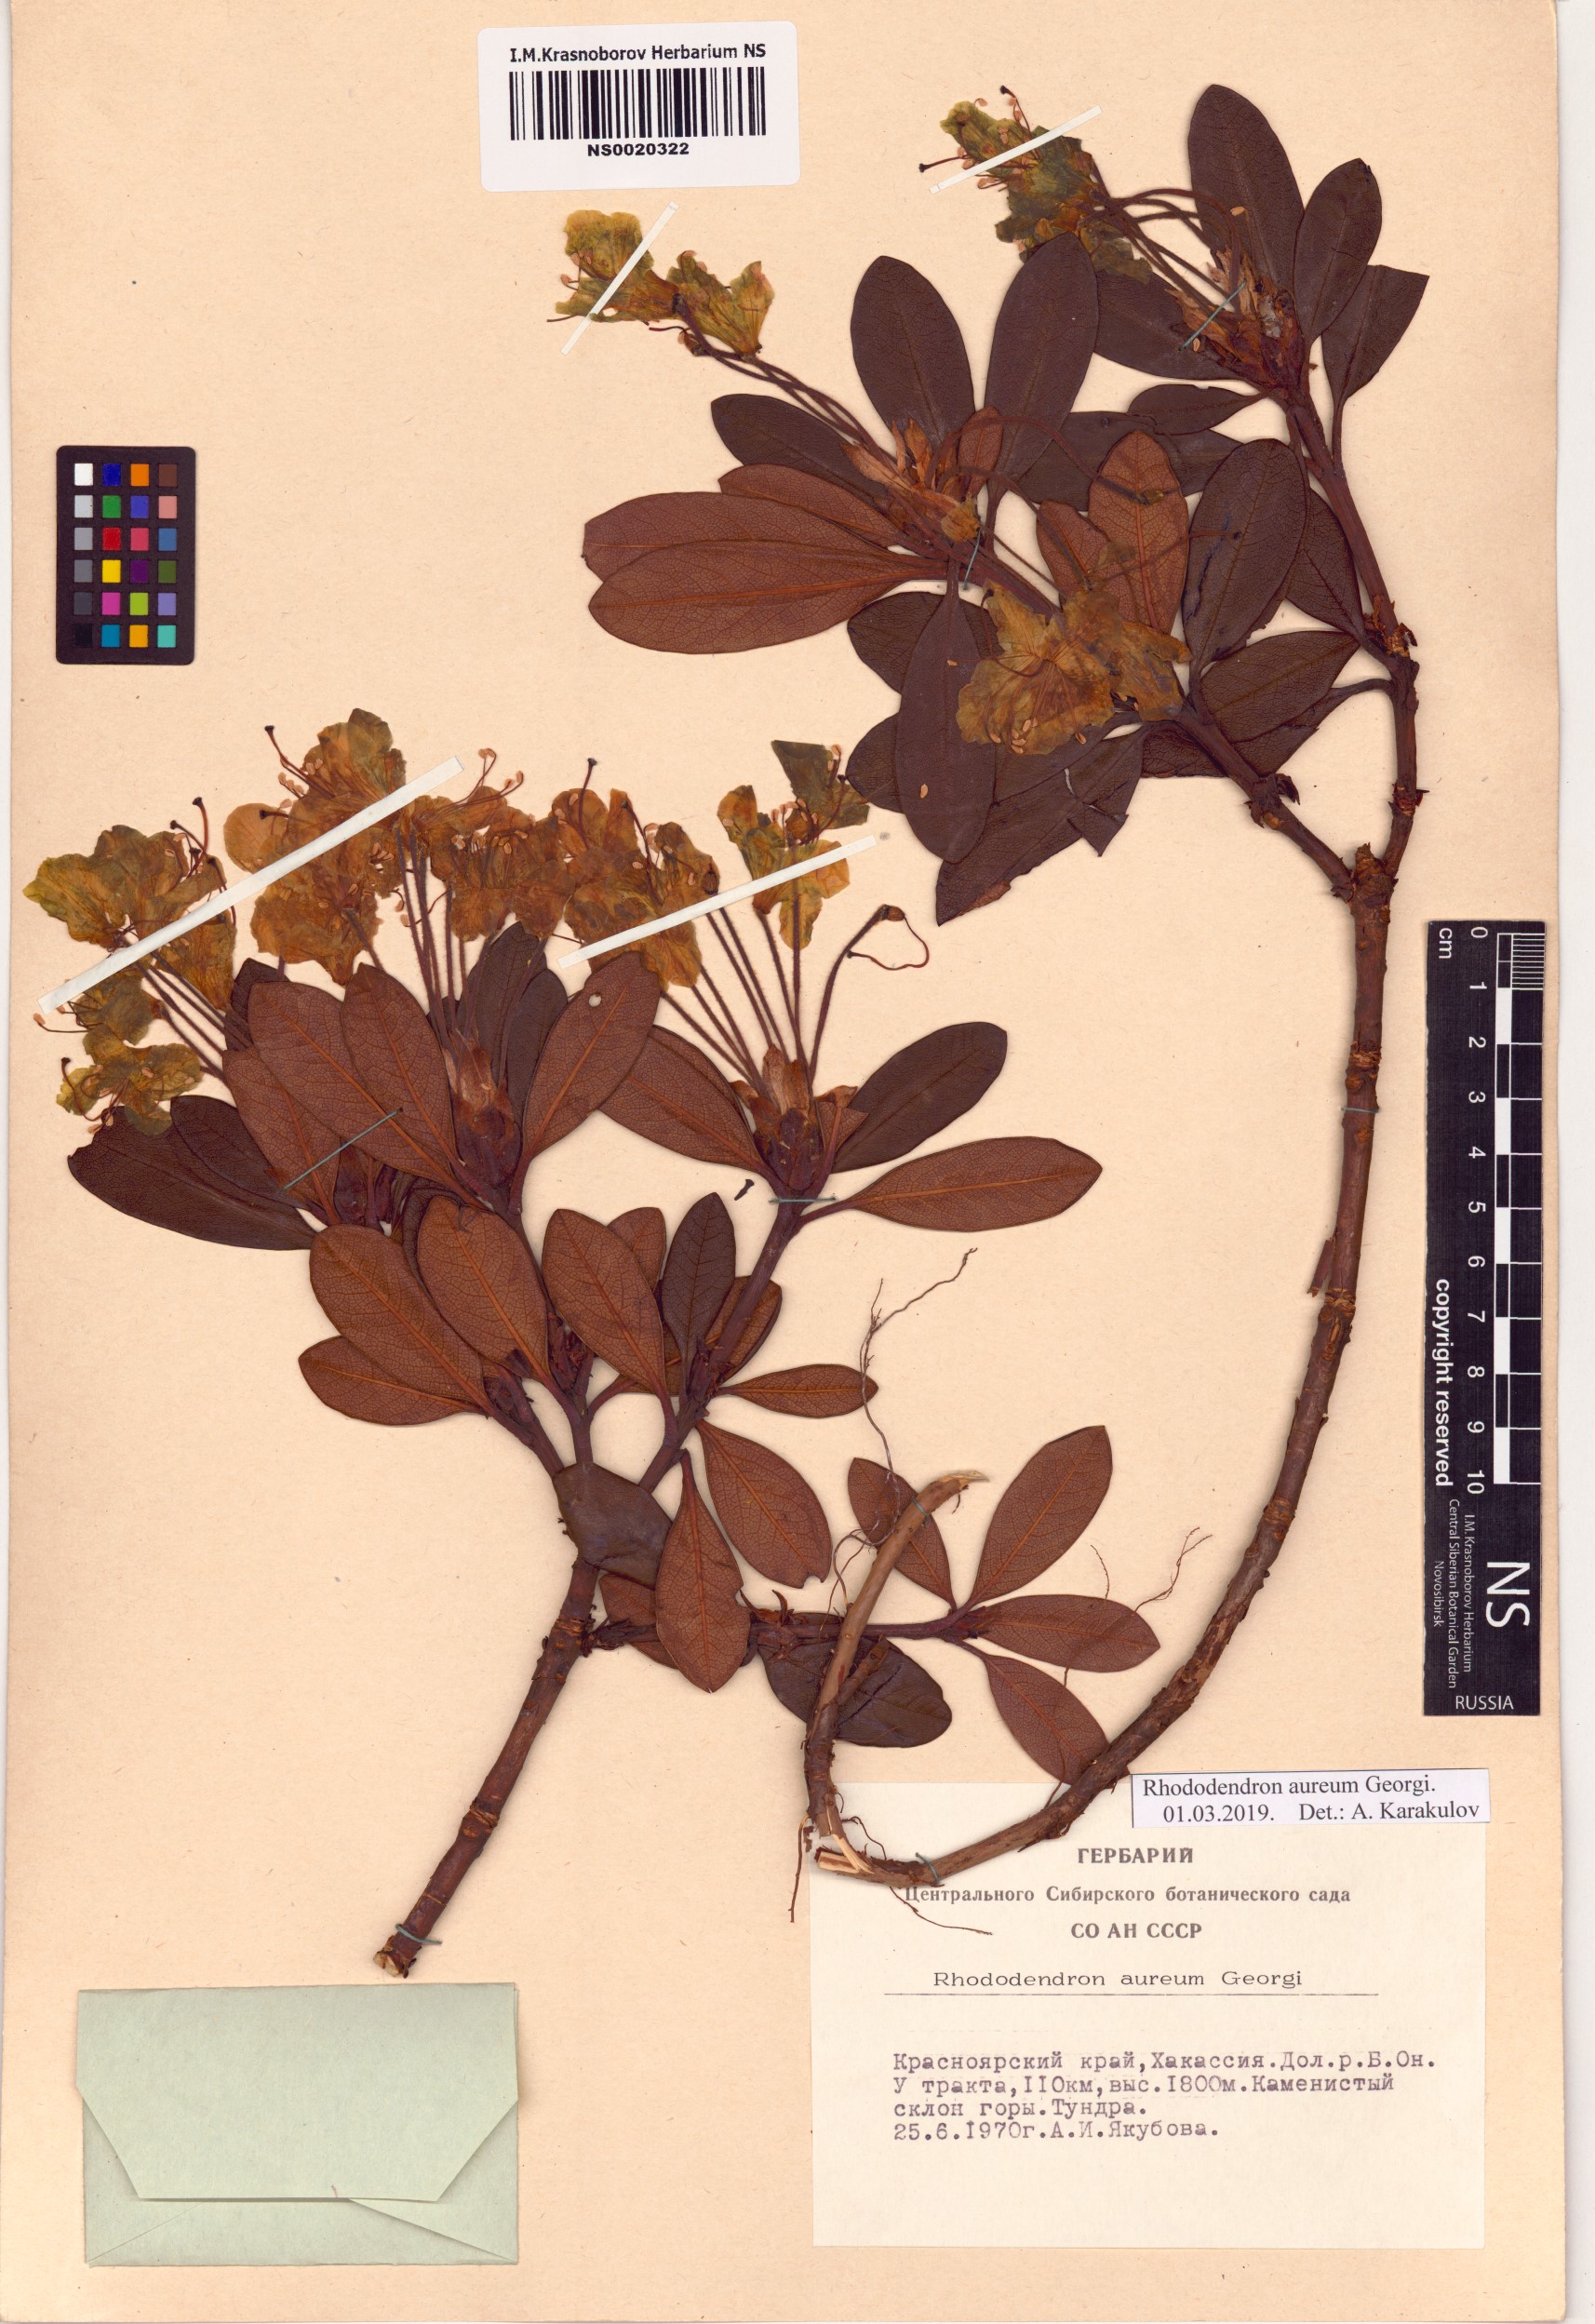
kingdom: Plantae
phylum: Tracheophyta
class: Magnoliopsida
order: Ericales
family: Ericaceae
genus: Rhododendron
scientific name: Rhododendron aureum
